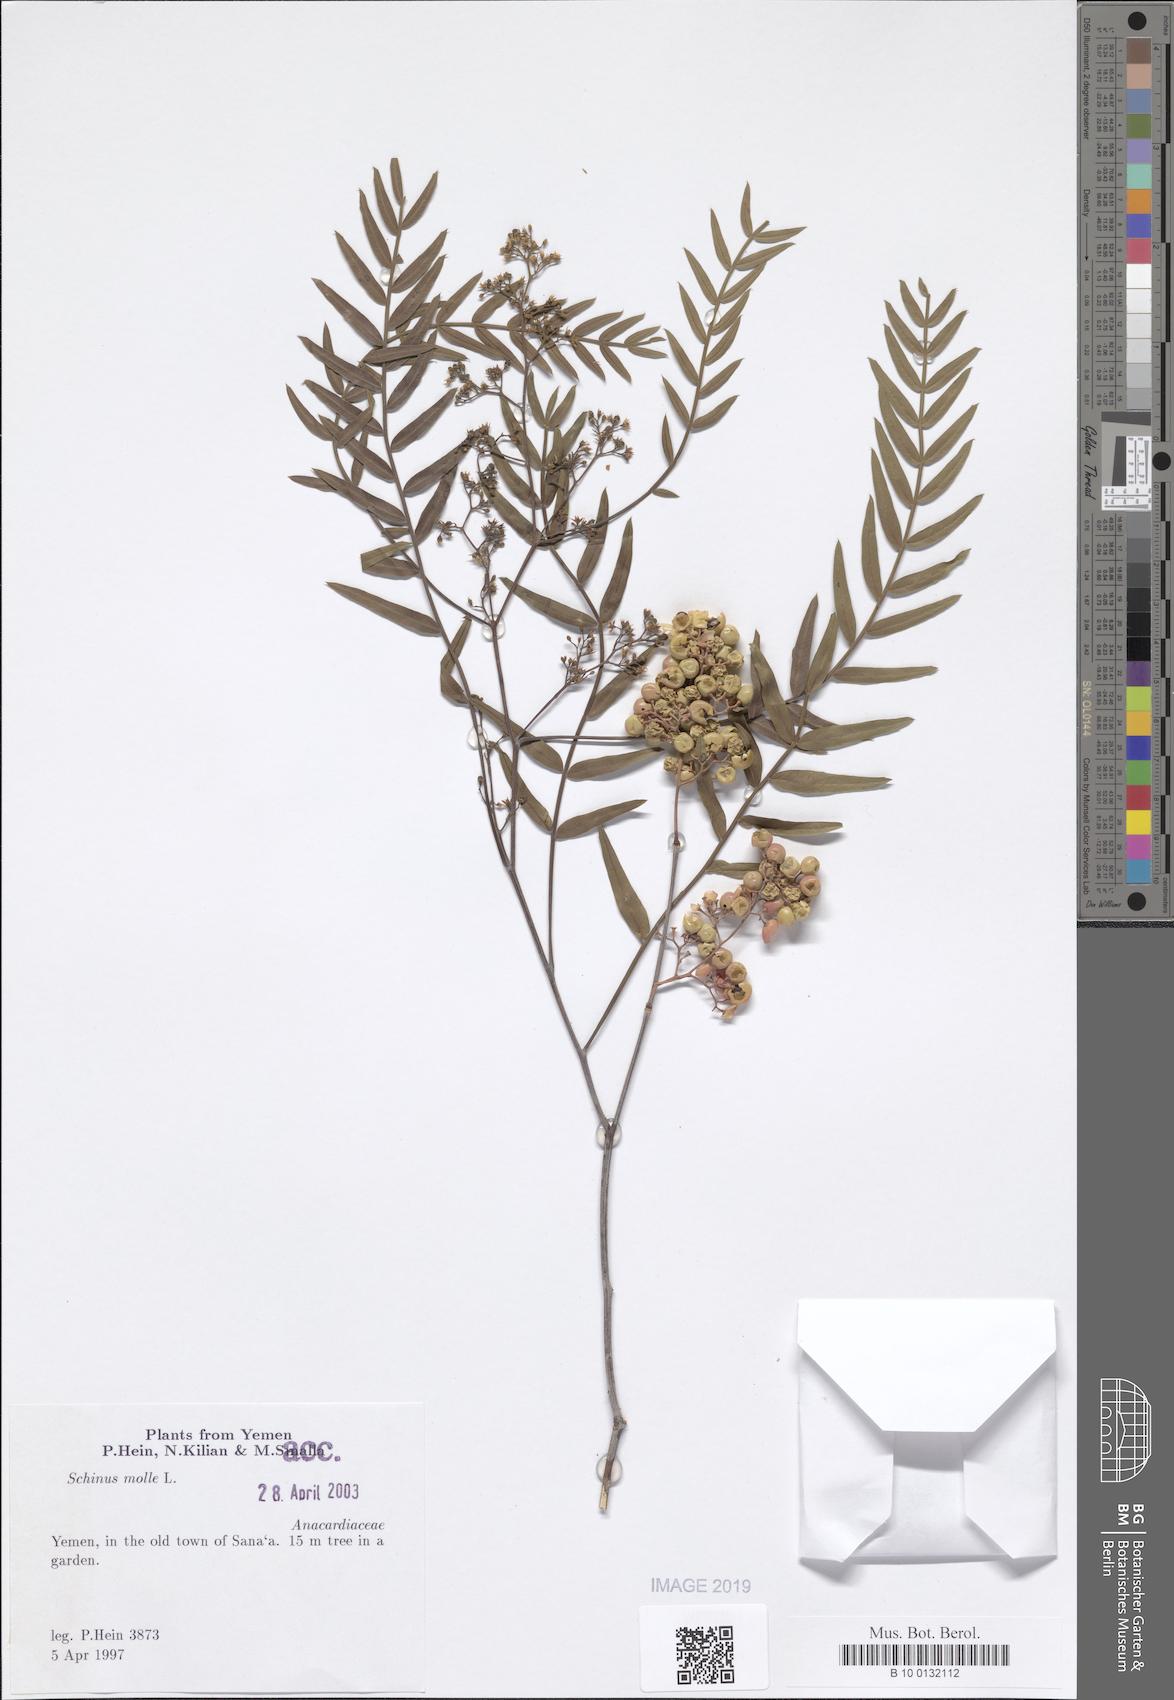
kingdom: Plantae
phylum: Tracheophyta
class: Magnoliopsida
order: Sapindales
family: Anacardiaceae
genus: Schinus
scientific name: Schinus molle
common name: Peruvian peppertree
